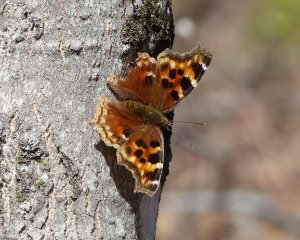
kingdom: Animalia
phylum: Arthropoda
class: Insecta
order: Lepidoptera
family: Nymphalidae
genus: Polygonia
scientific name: Polygonia vaualbum
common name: Compton Tortoiseshell
